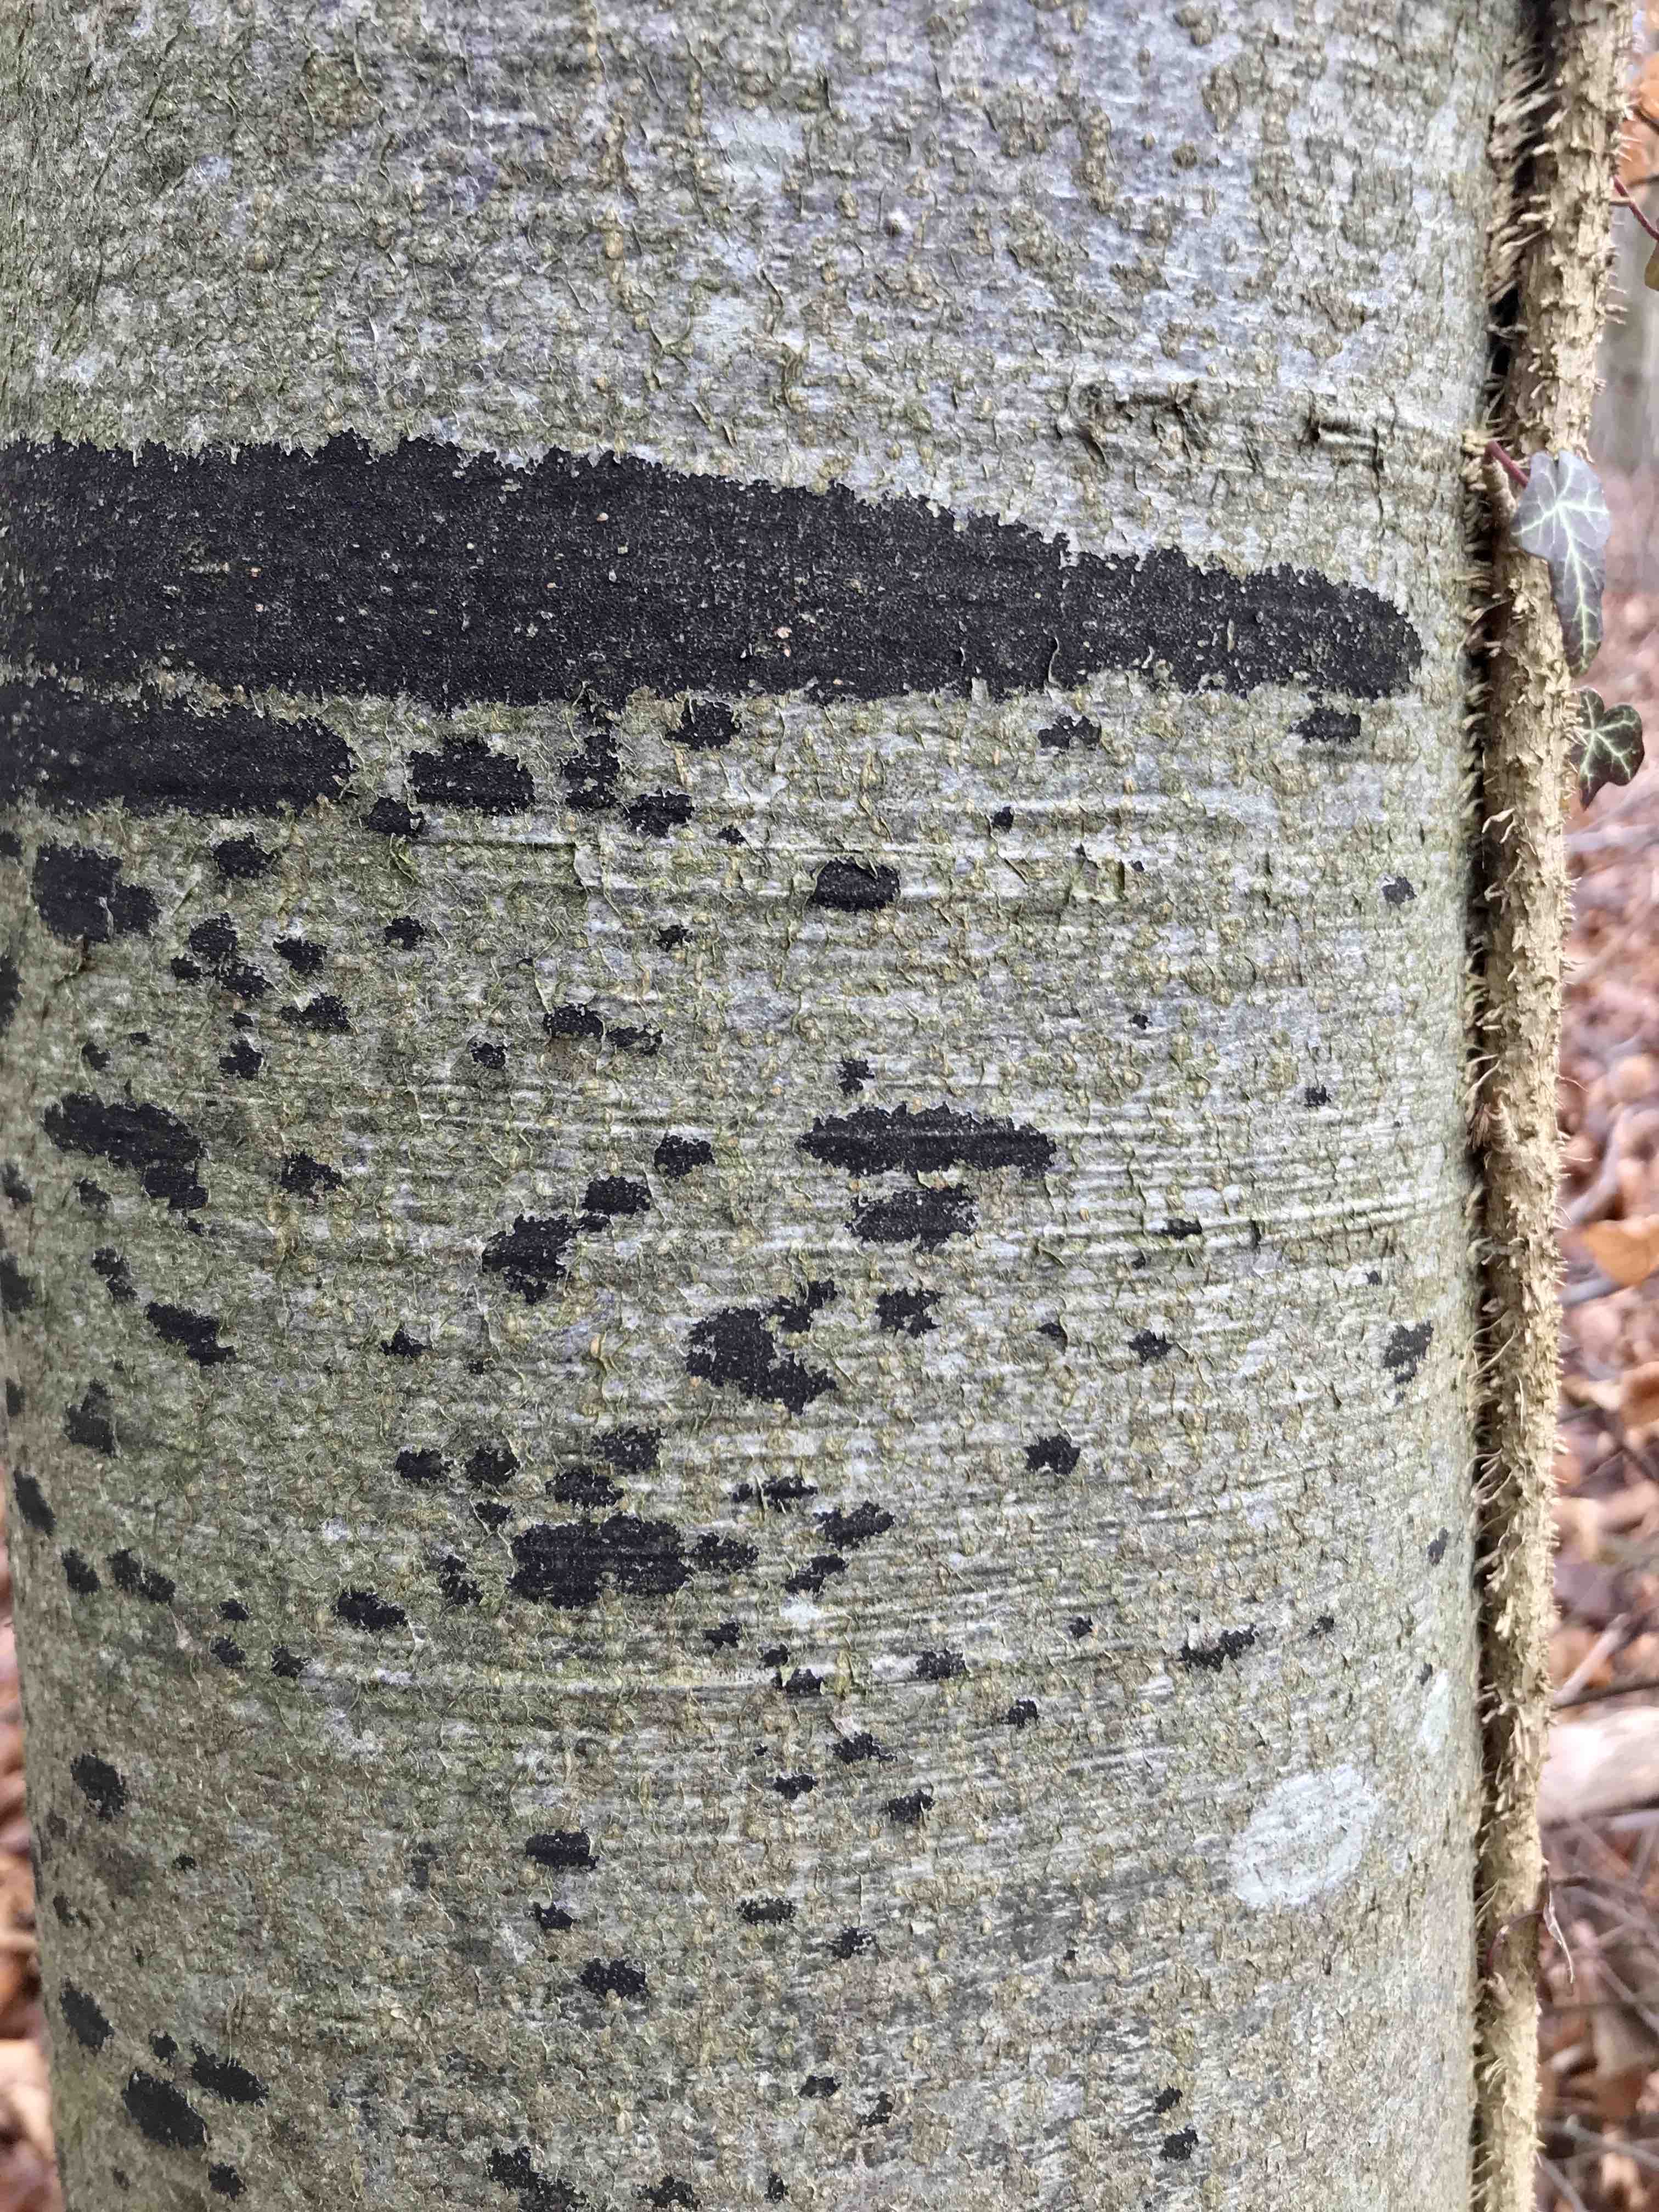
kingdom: Fungi
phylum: Ascomycota
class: Leotiomycetes
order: Rhytismatales
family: Ascodichaenaceae
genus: Ascodichaena
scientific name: Ascodichaena rugosa
